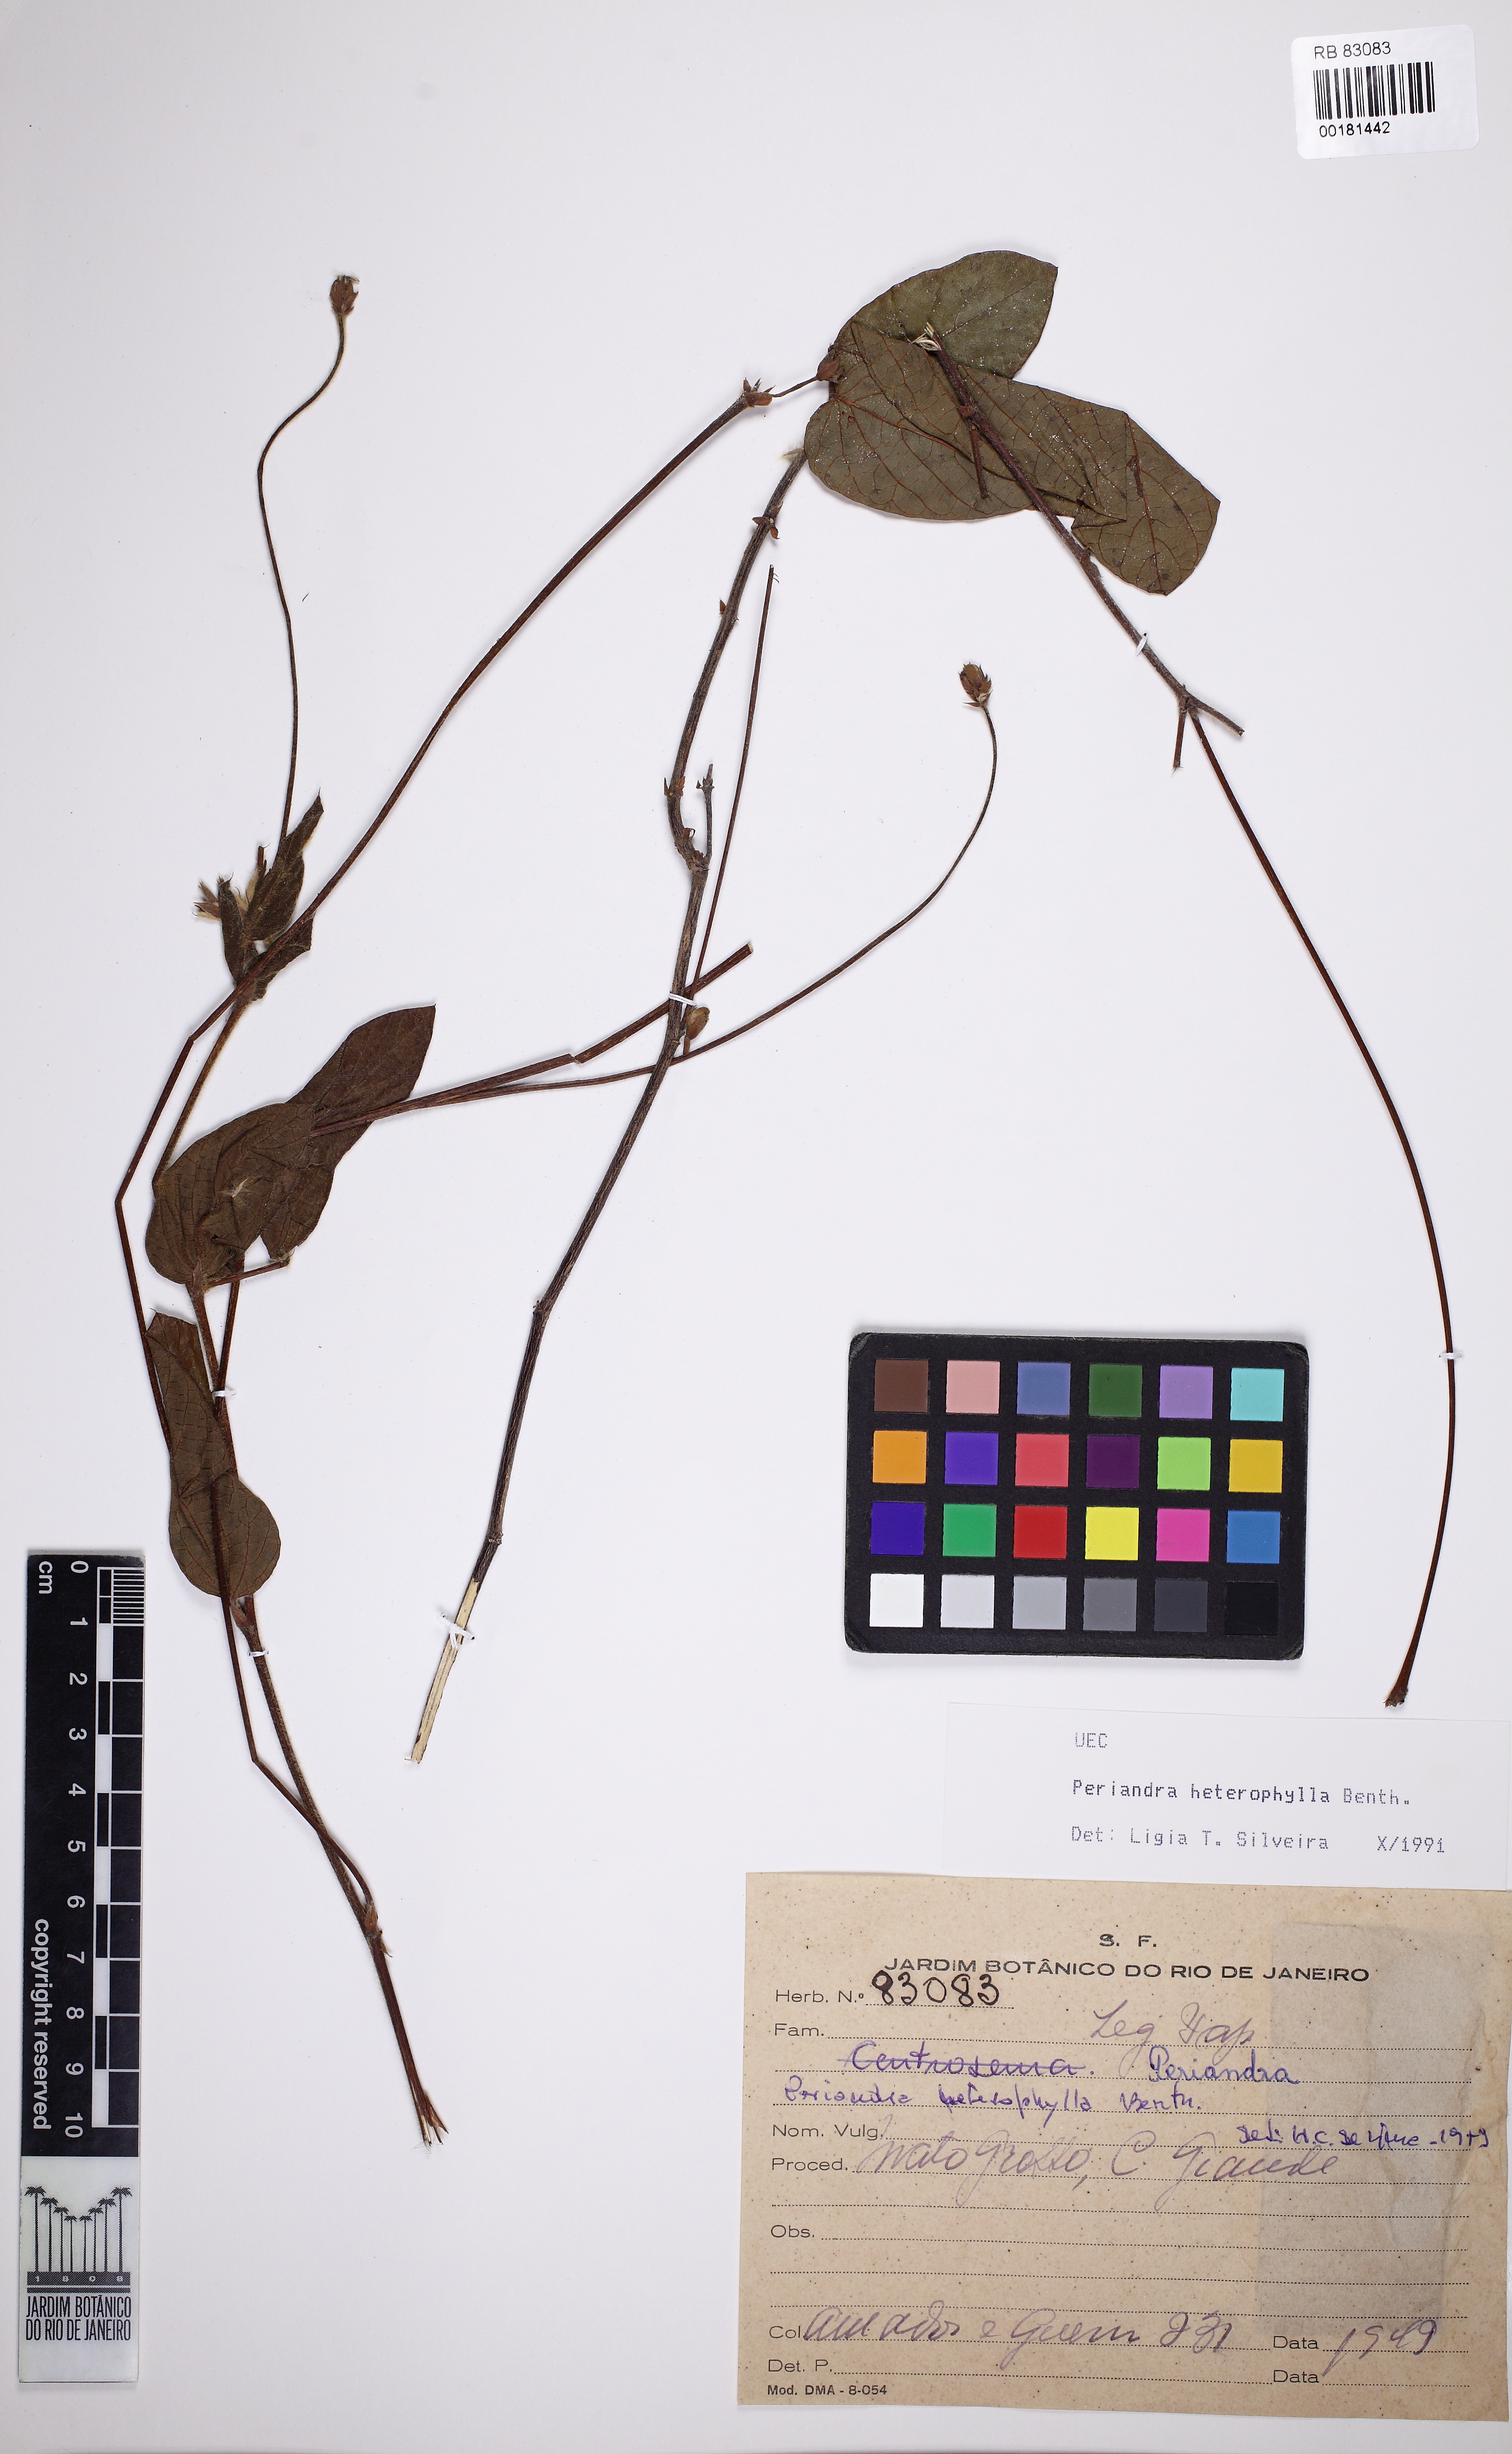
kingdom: Plantae
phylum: Tracheophyta
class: Magnoliopsida
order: Fabales
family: Fabaceae
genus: Periandra
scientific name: Periandra heterophylla
